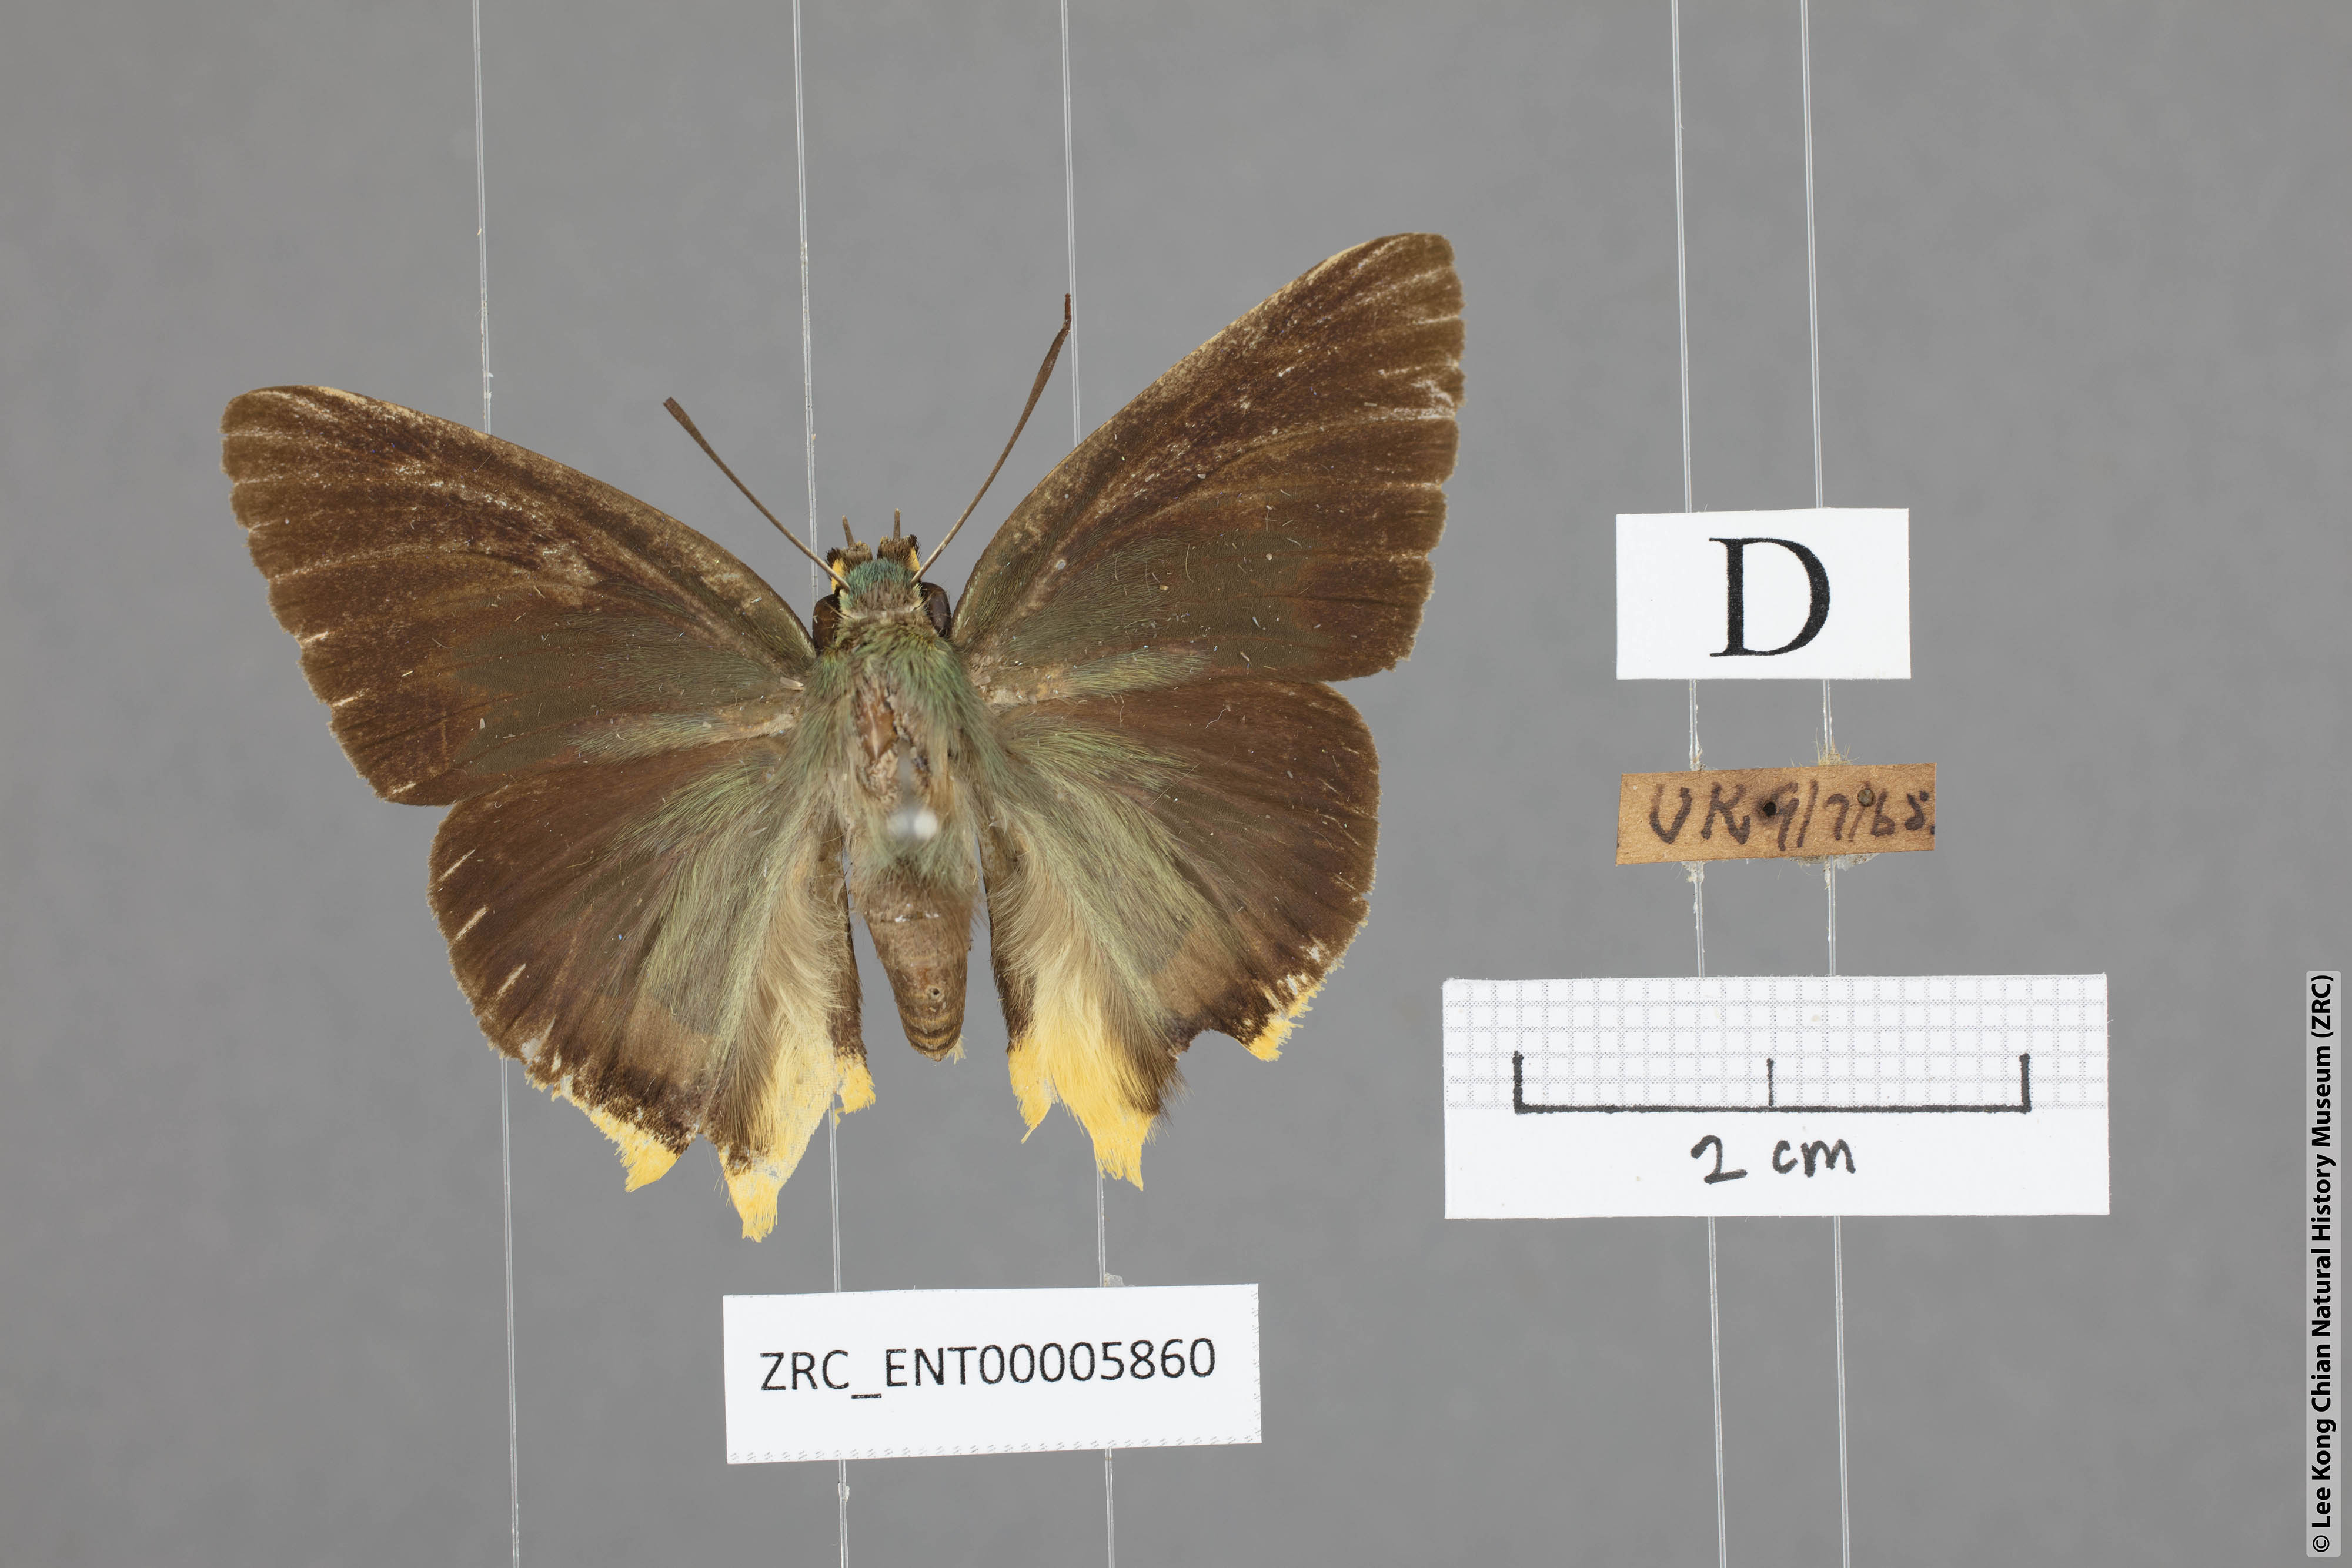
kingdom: Animalia
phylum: Arthropoda
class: Insecta
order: Lepidoptera
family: Hesperiidae
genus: Choaspes
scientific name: Choaspes plateni
